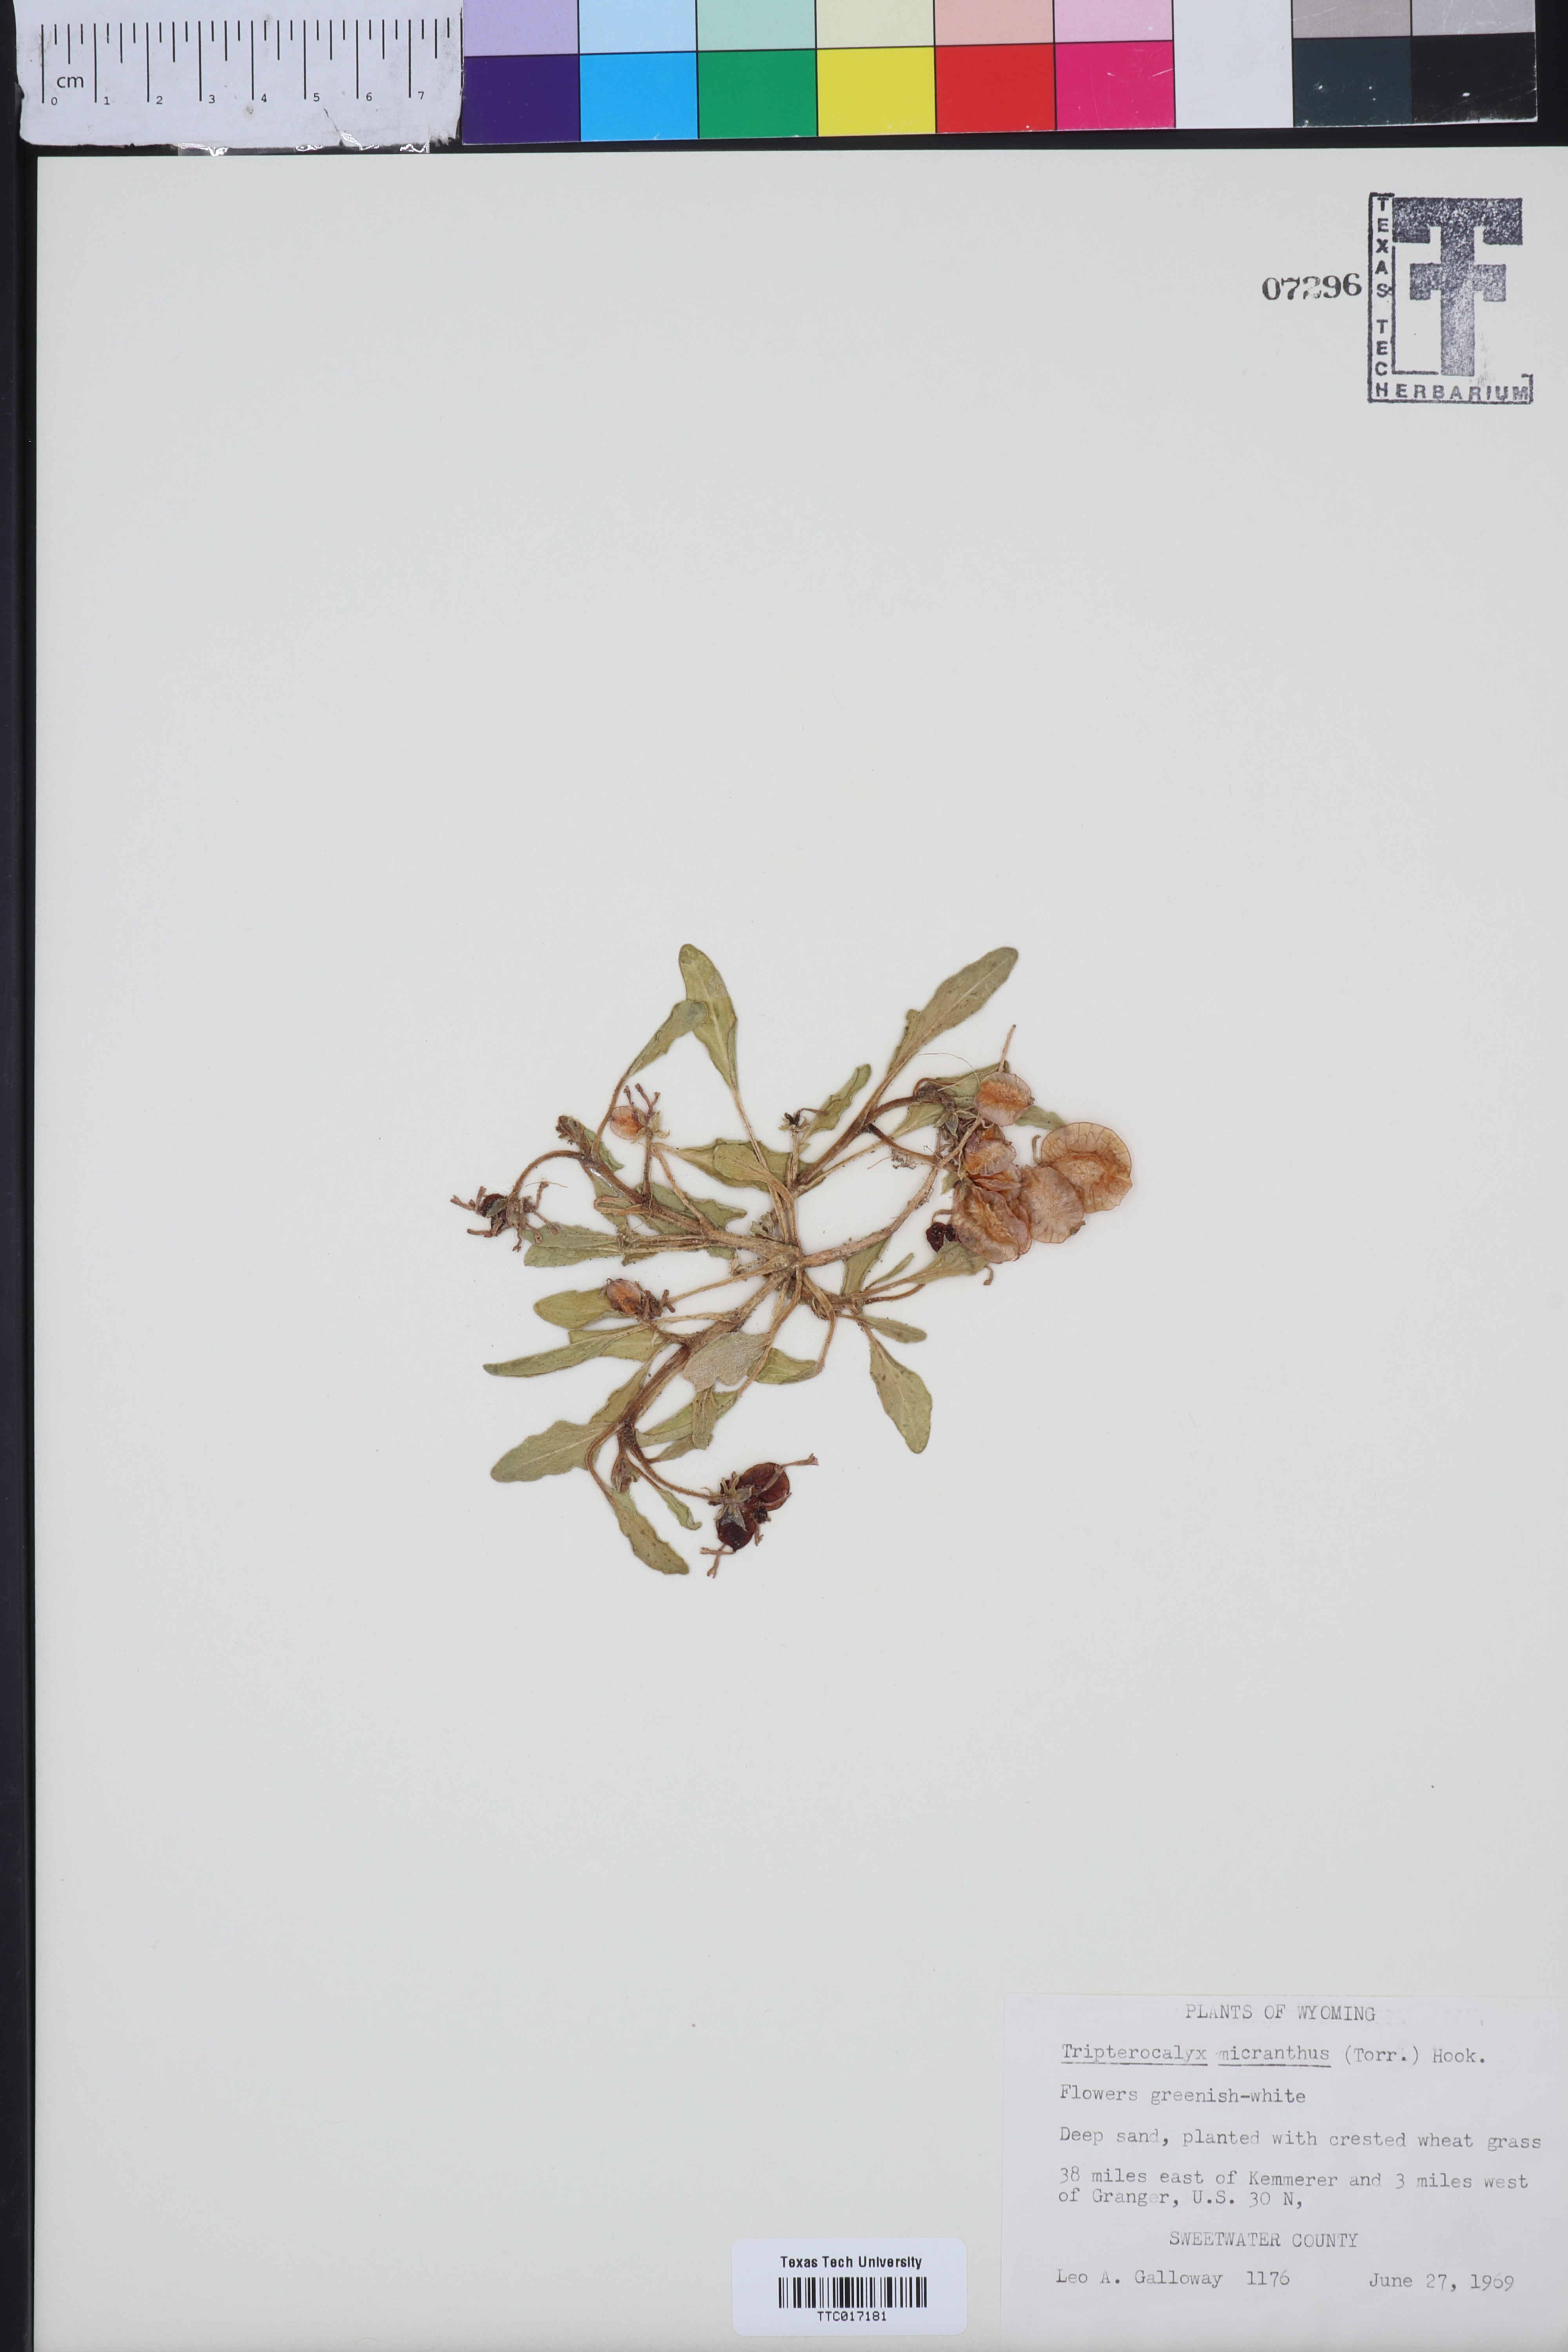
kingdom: Plantae
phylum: Tracheophyta
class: Magnoliopsida
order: Caryophyllales
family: Nyctaginaceae
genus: Tripterocalyx
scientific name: Tripterocalyx micranthus
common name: Small-flowered sand-verbena
